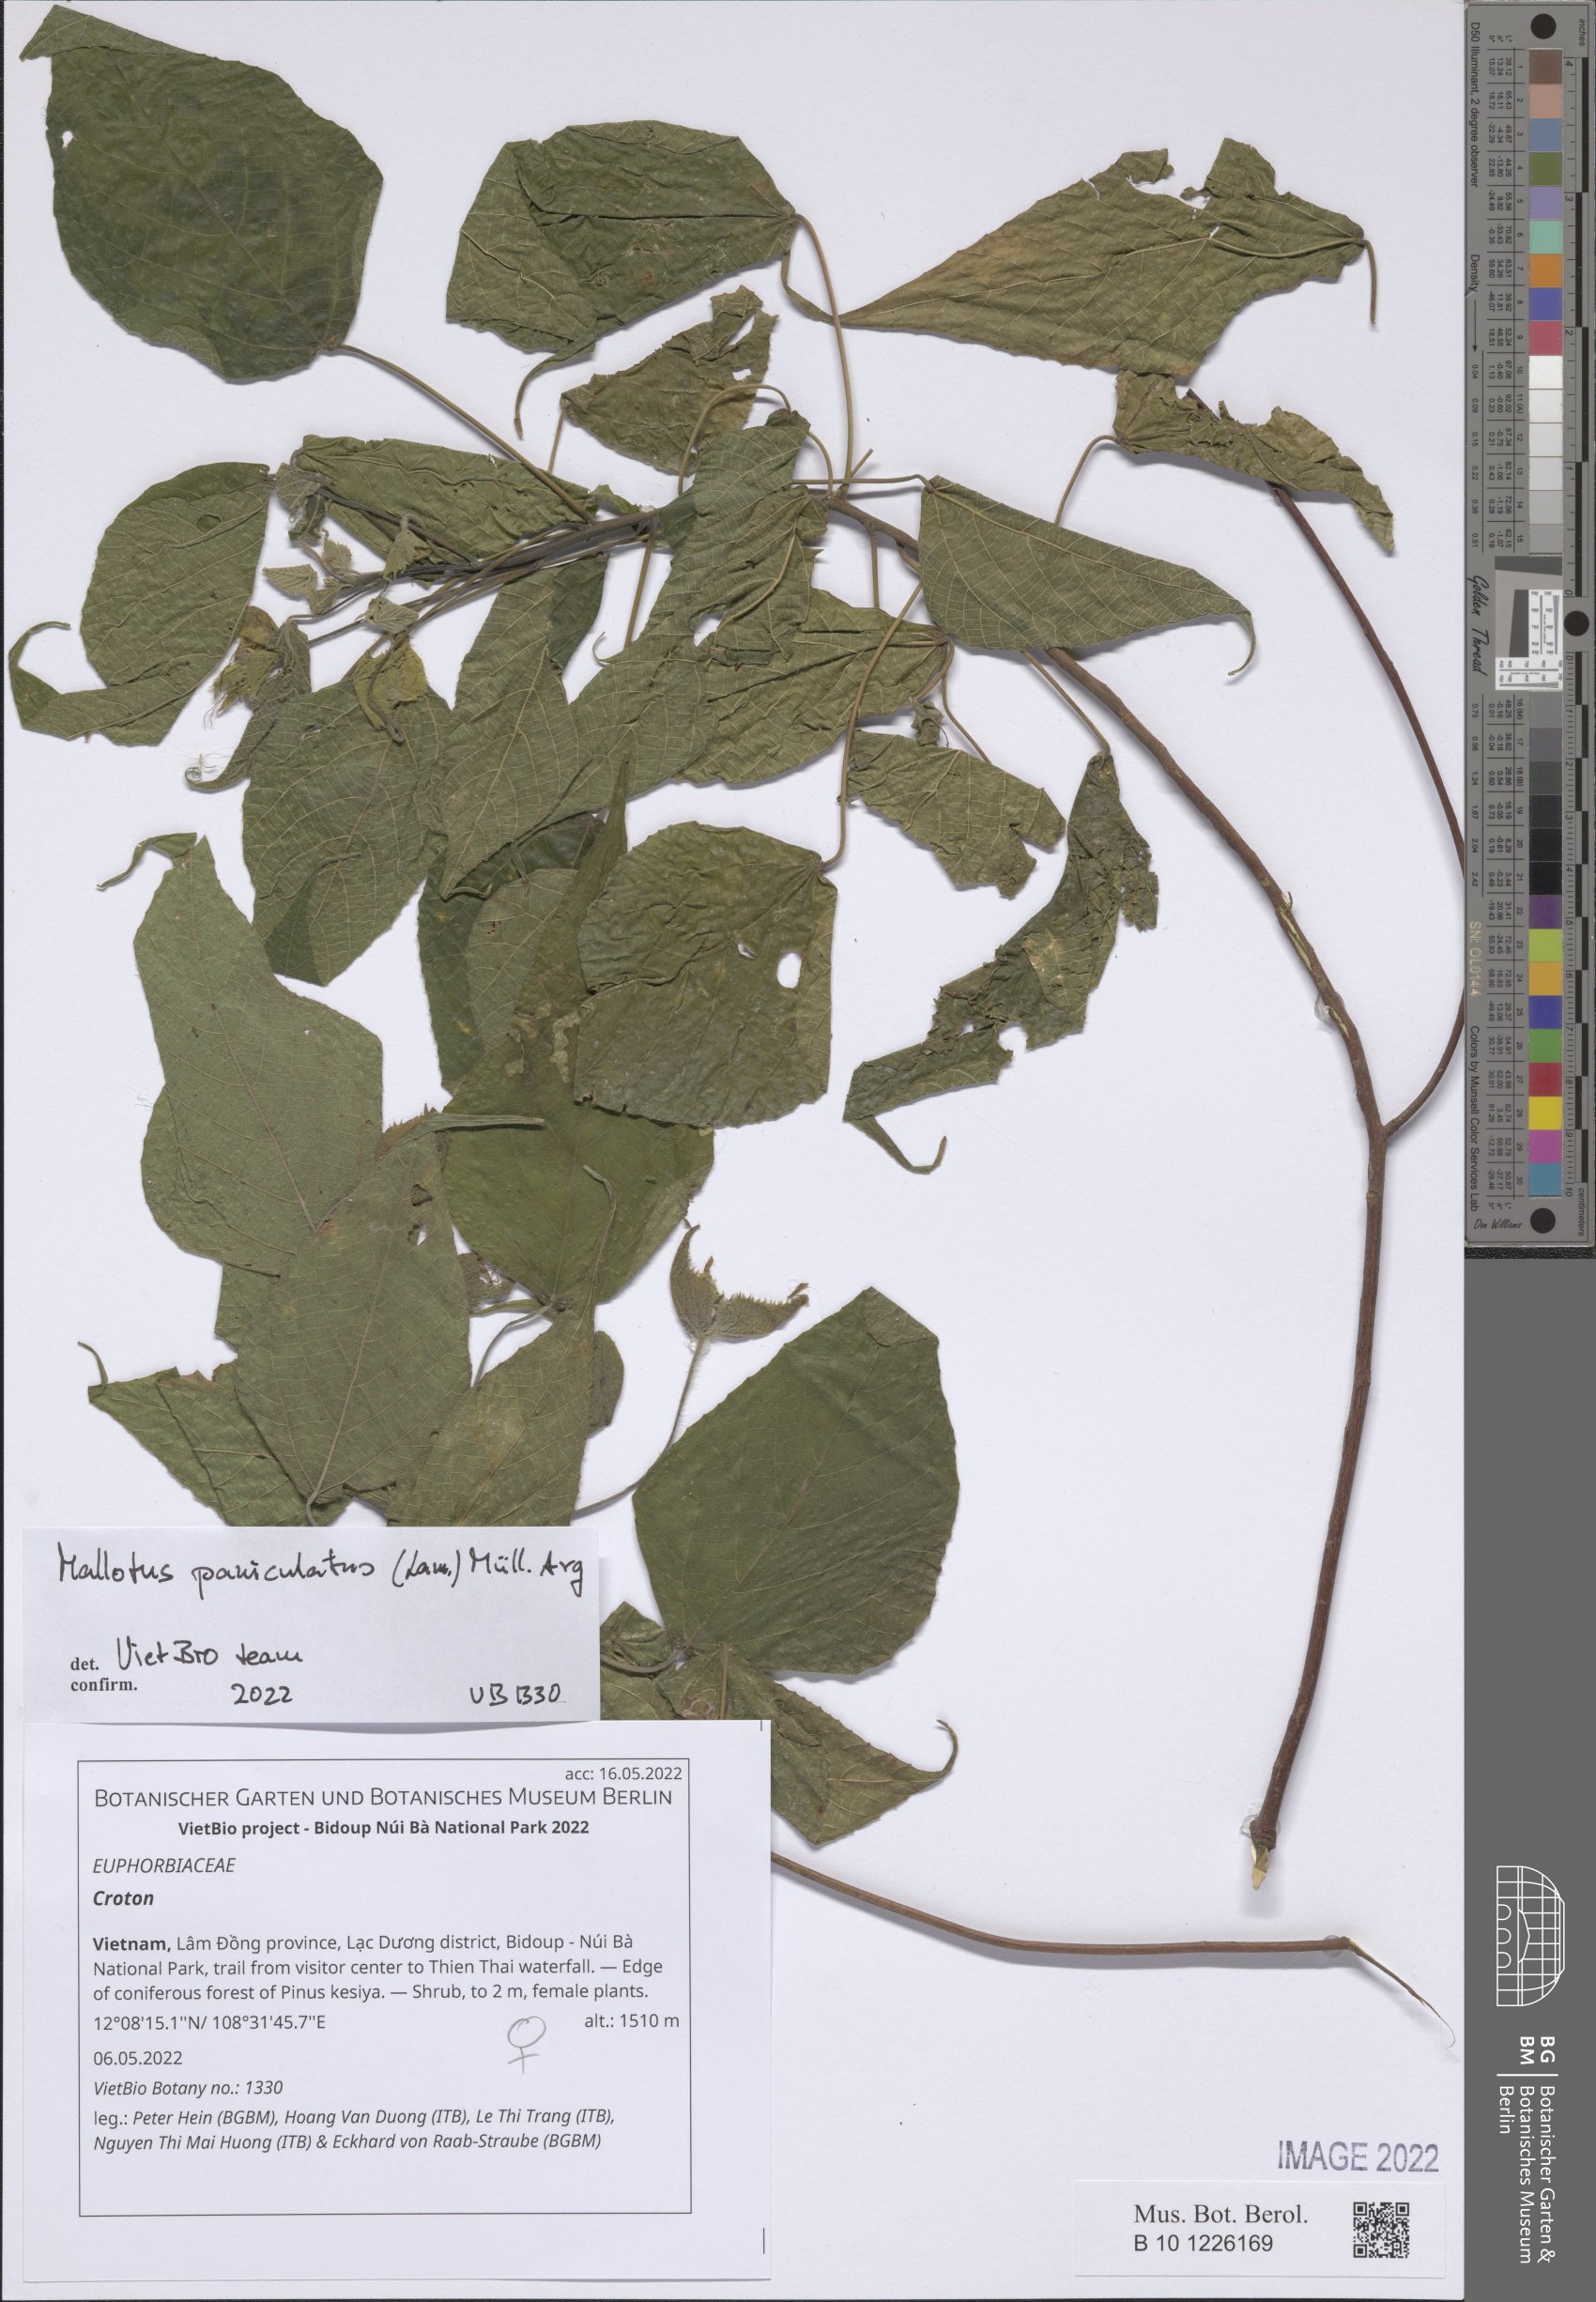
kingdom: Plantae
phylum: Tracheophyta
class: Magnoliopsida
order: Malpighiales
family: Euphorbiaceae
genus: Croton
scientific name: Croton
